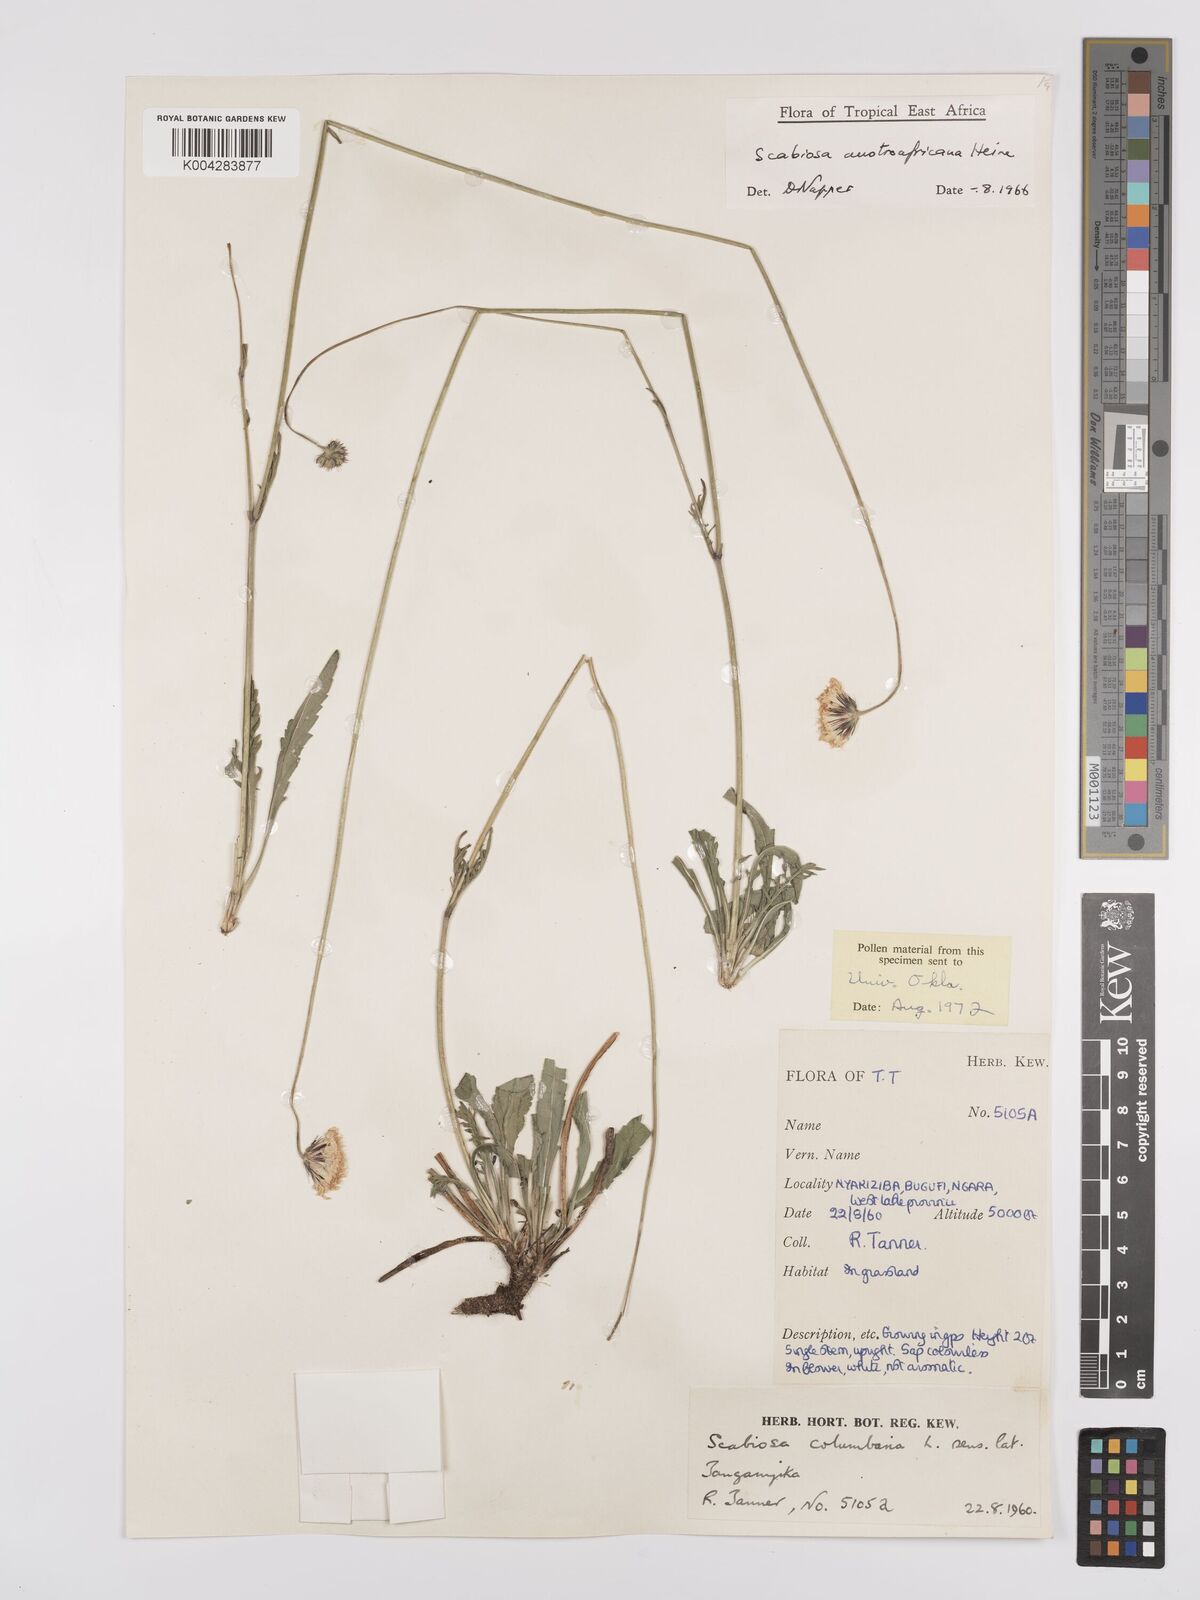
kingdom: Plantae
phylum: Tracheophyta
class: Magnoliopsida
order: Dipsacales
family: Caprifoliaceae
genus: Scabiosa
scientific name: Scabiosa austroafricana
